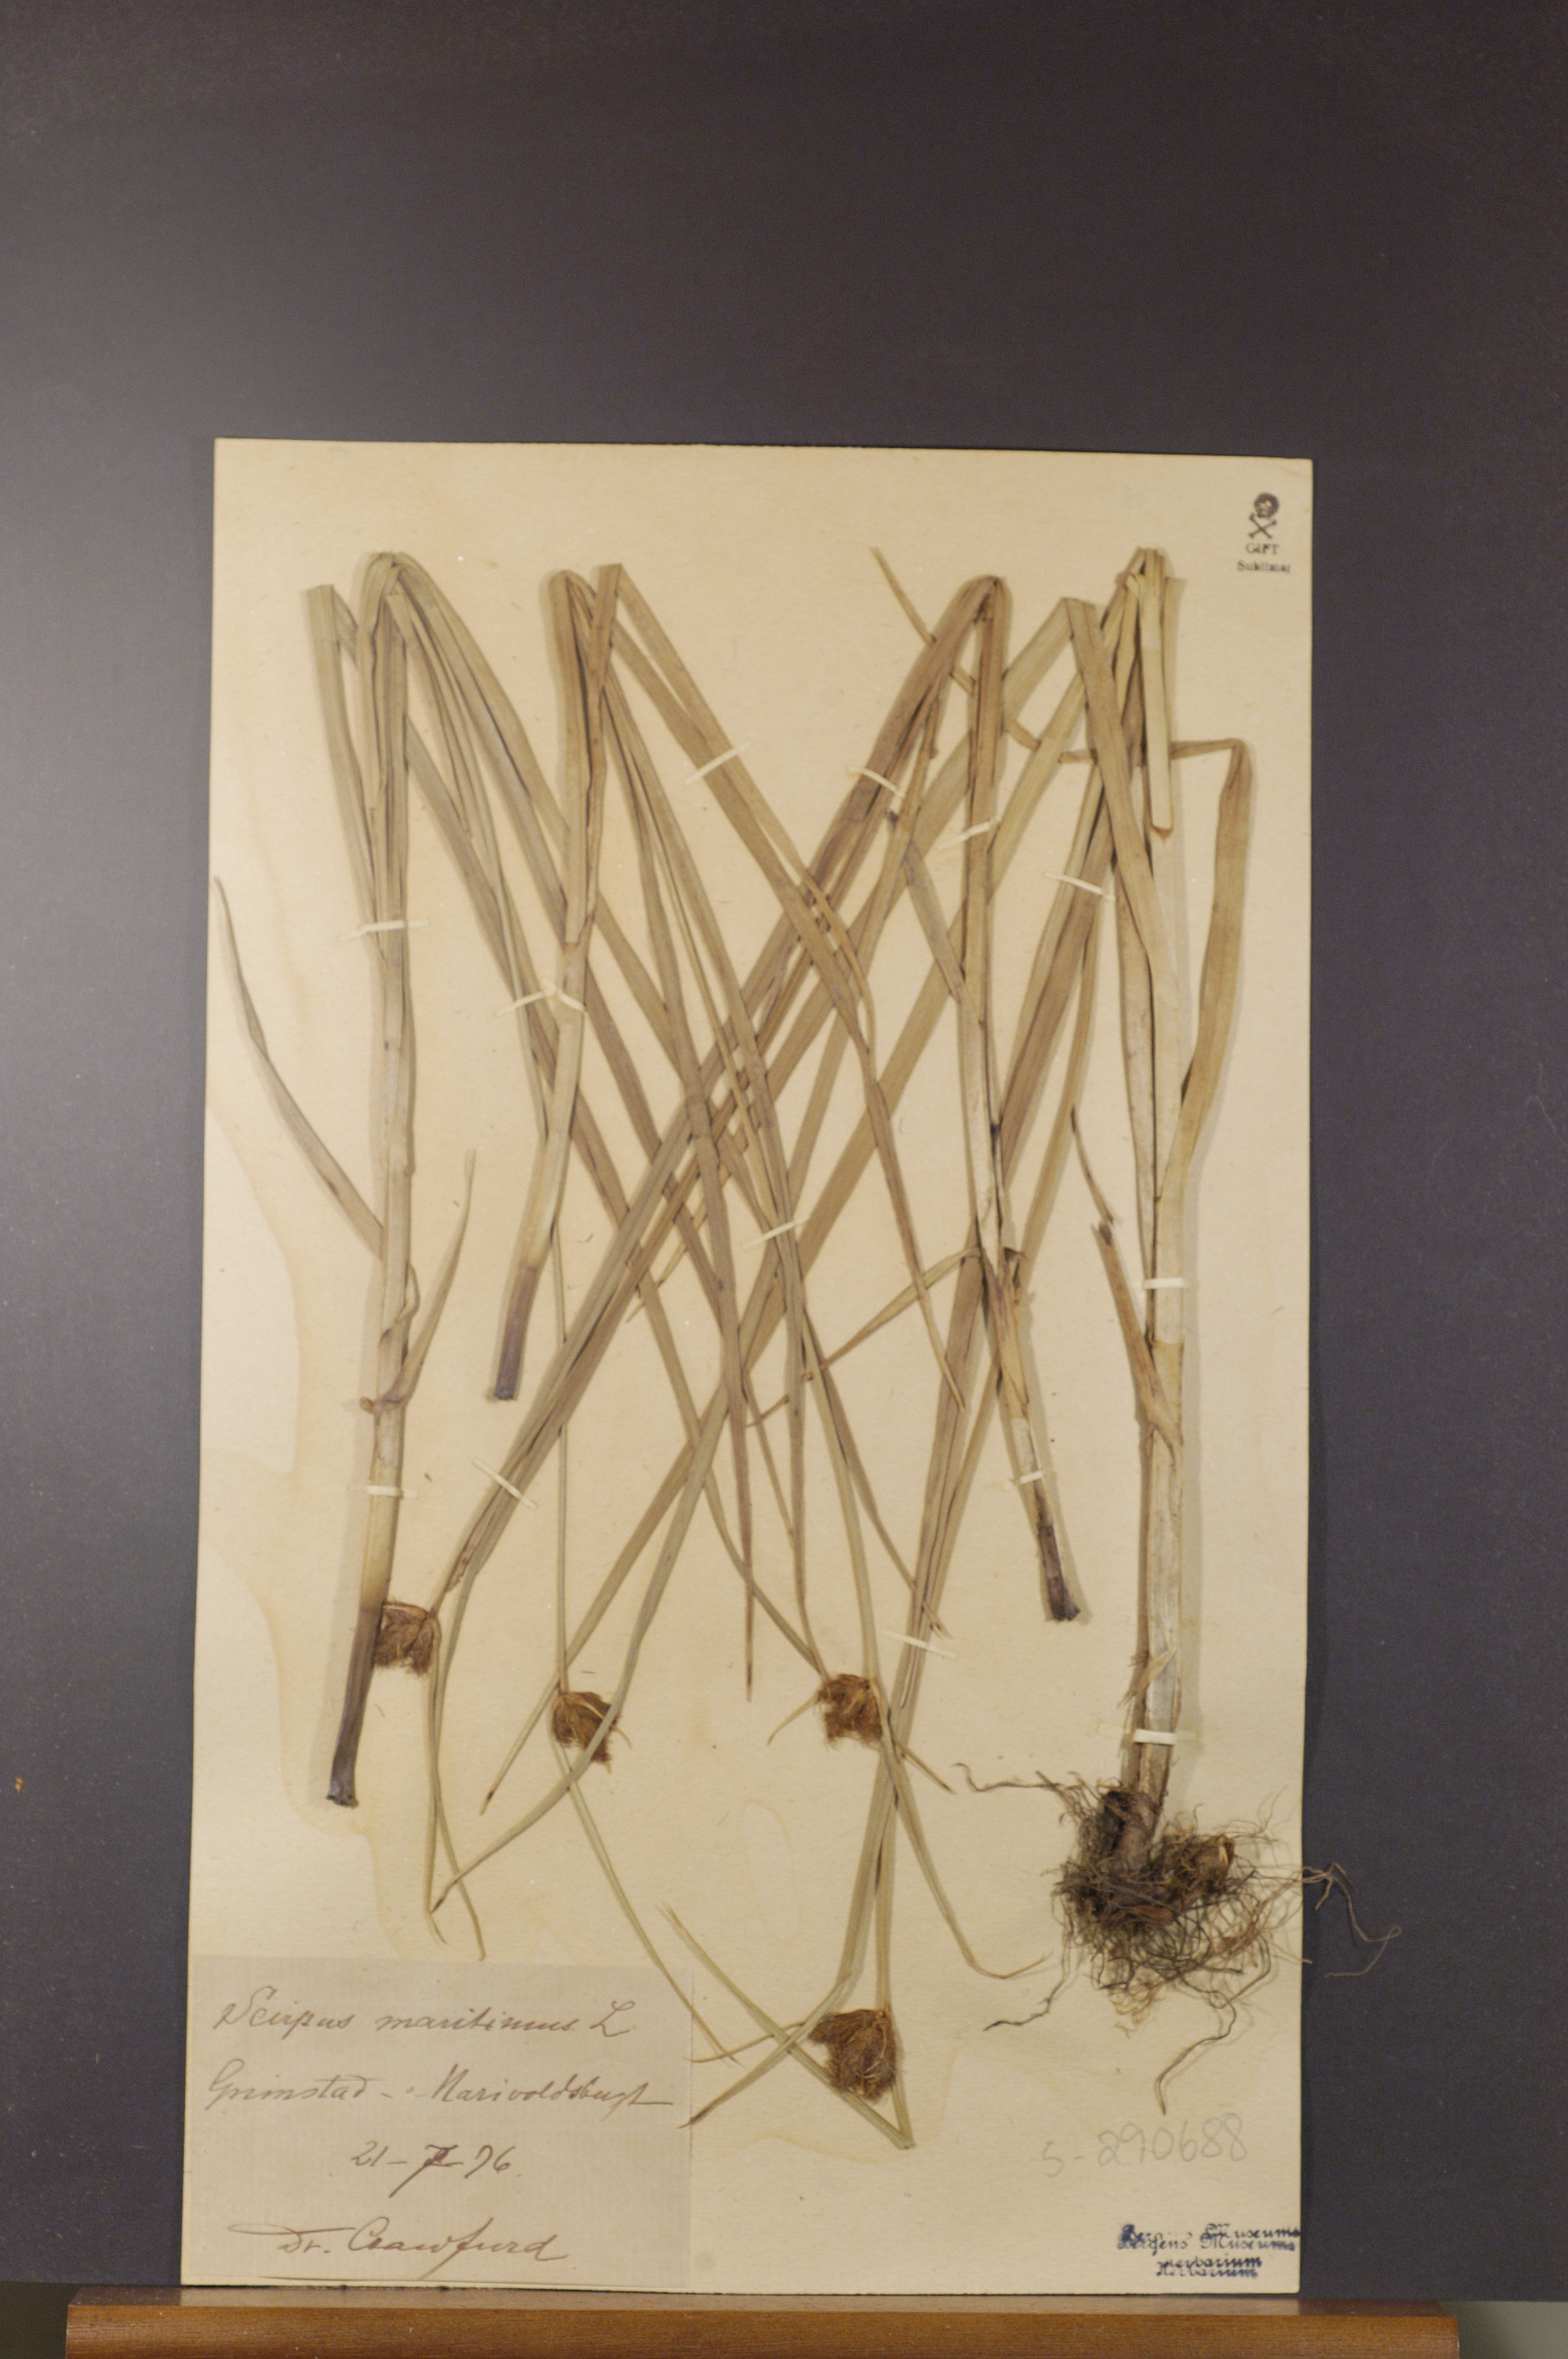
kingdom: Plantae
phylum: Tracheophyta
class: Liliopsida
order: Poales
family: Cyperaceae
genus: Bolboschoenus
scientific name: Bolboschoenus maritimus
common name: Sea club-rush
